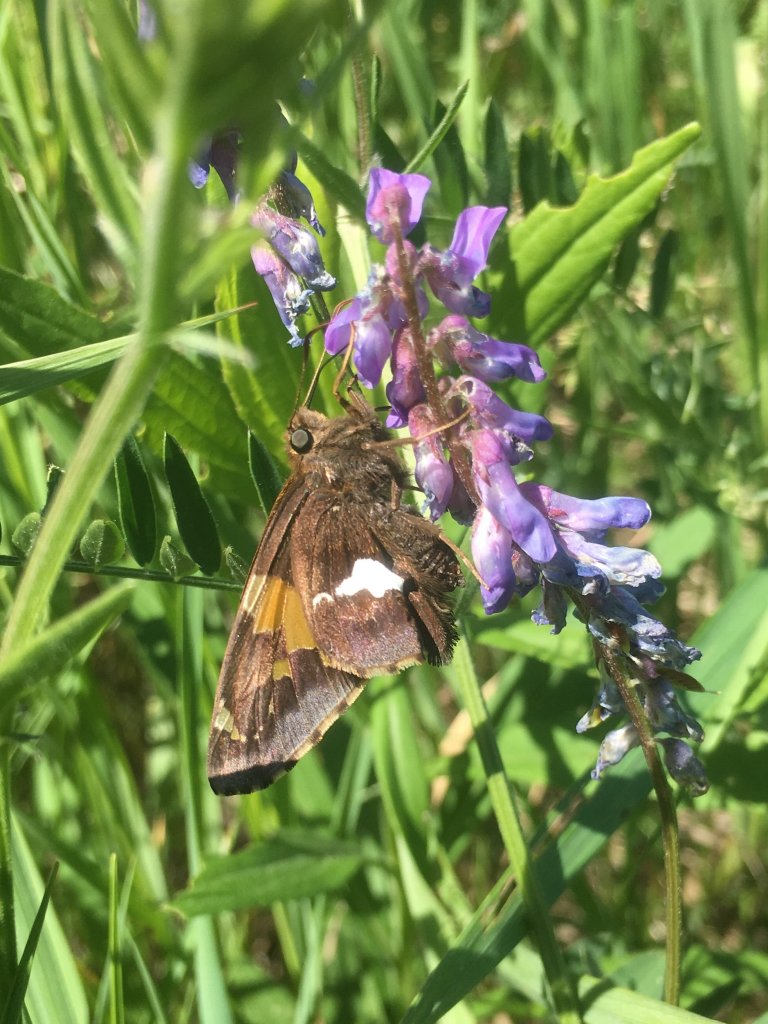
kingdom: Animalia
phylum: Arthropoda
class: Insecta
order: Lepidoptera
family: Hesperiidae
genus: Epargyreus
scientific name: Epargyreus clarus
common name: Silver-spotted Skipper
